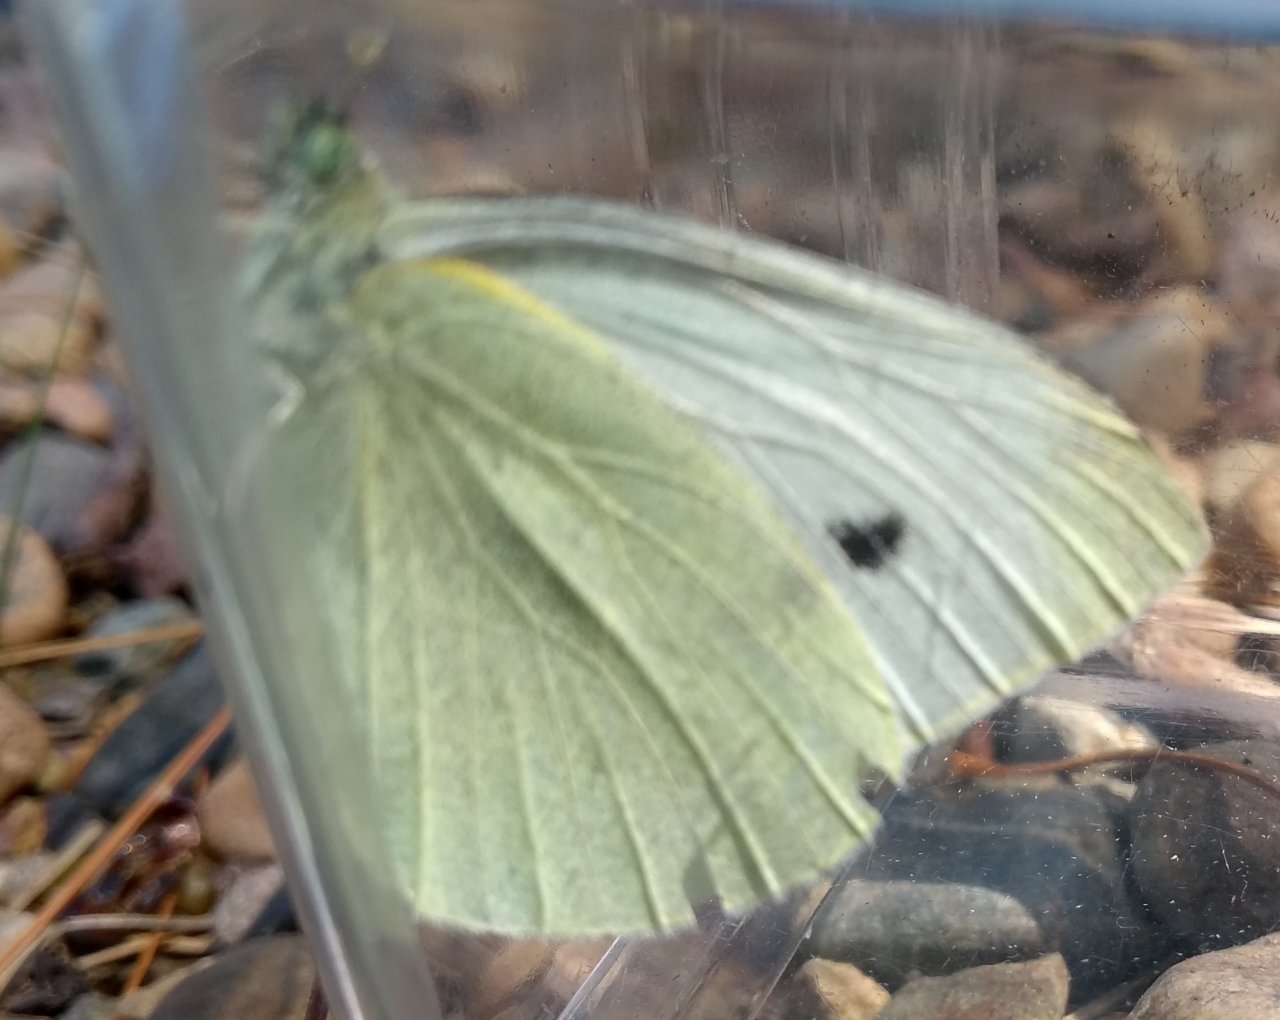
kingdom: Animalia
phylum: Arthropoda
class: Insecta
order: Lepidoptera
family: Pieridae
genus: Pieris
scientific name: Pieris rapae
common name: Cabbage White
